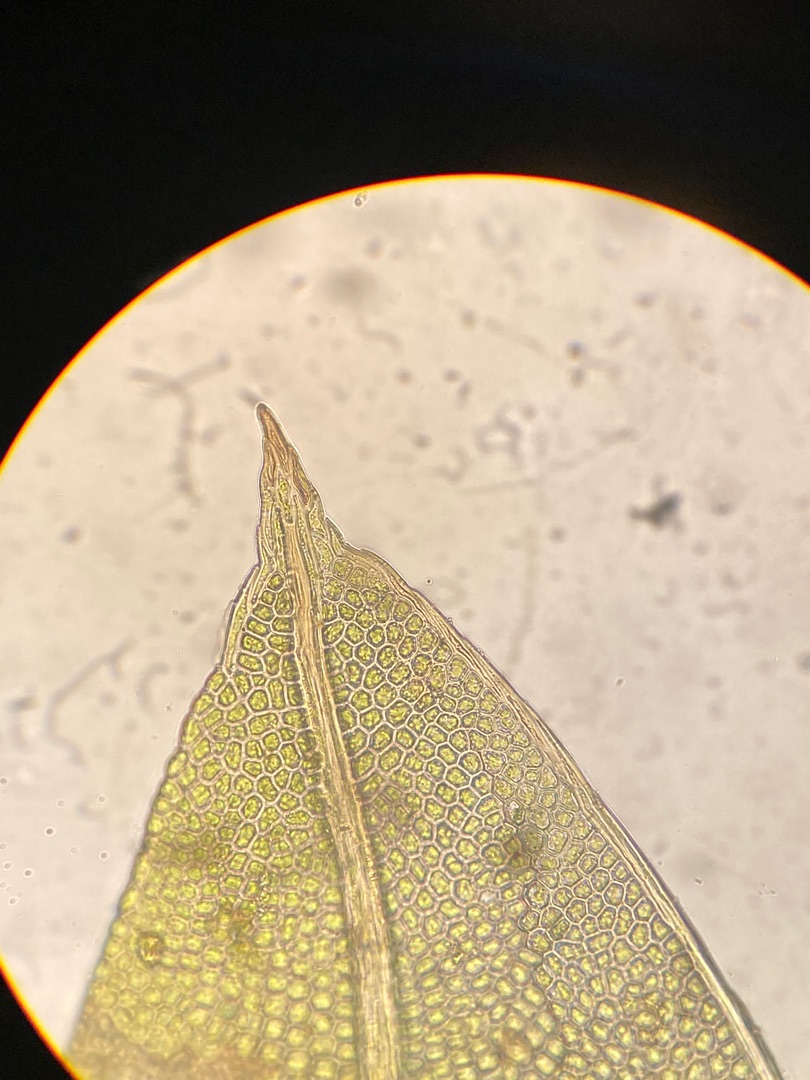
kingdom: Plantae
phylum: Bryophyta
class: Bryopsida
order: Dicranales
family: Fissidentaceae
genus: Fissidens
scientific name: Fissidens bryoides
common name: Top-rademos
